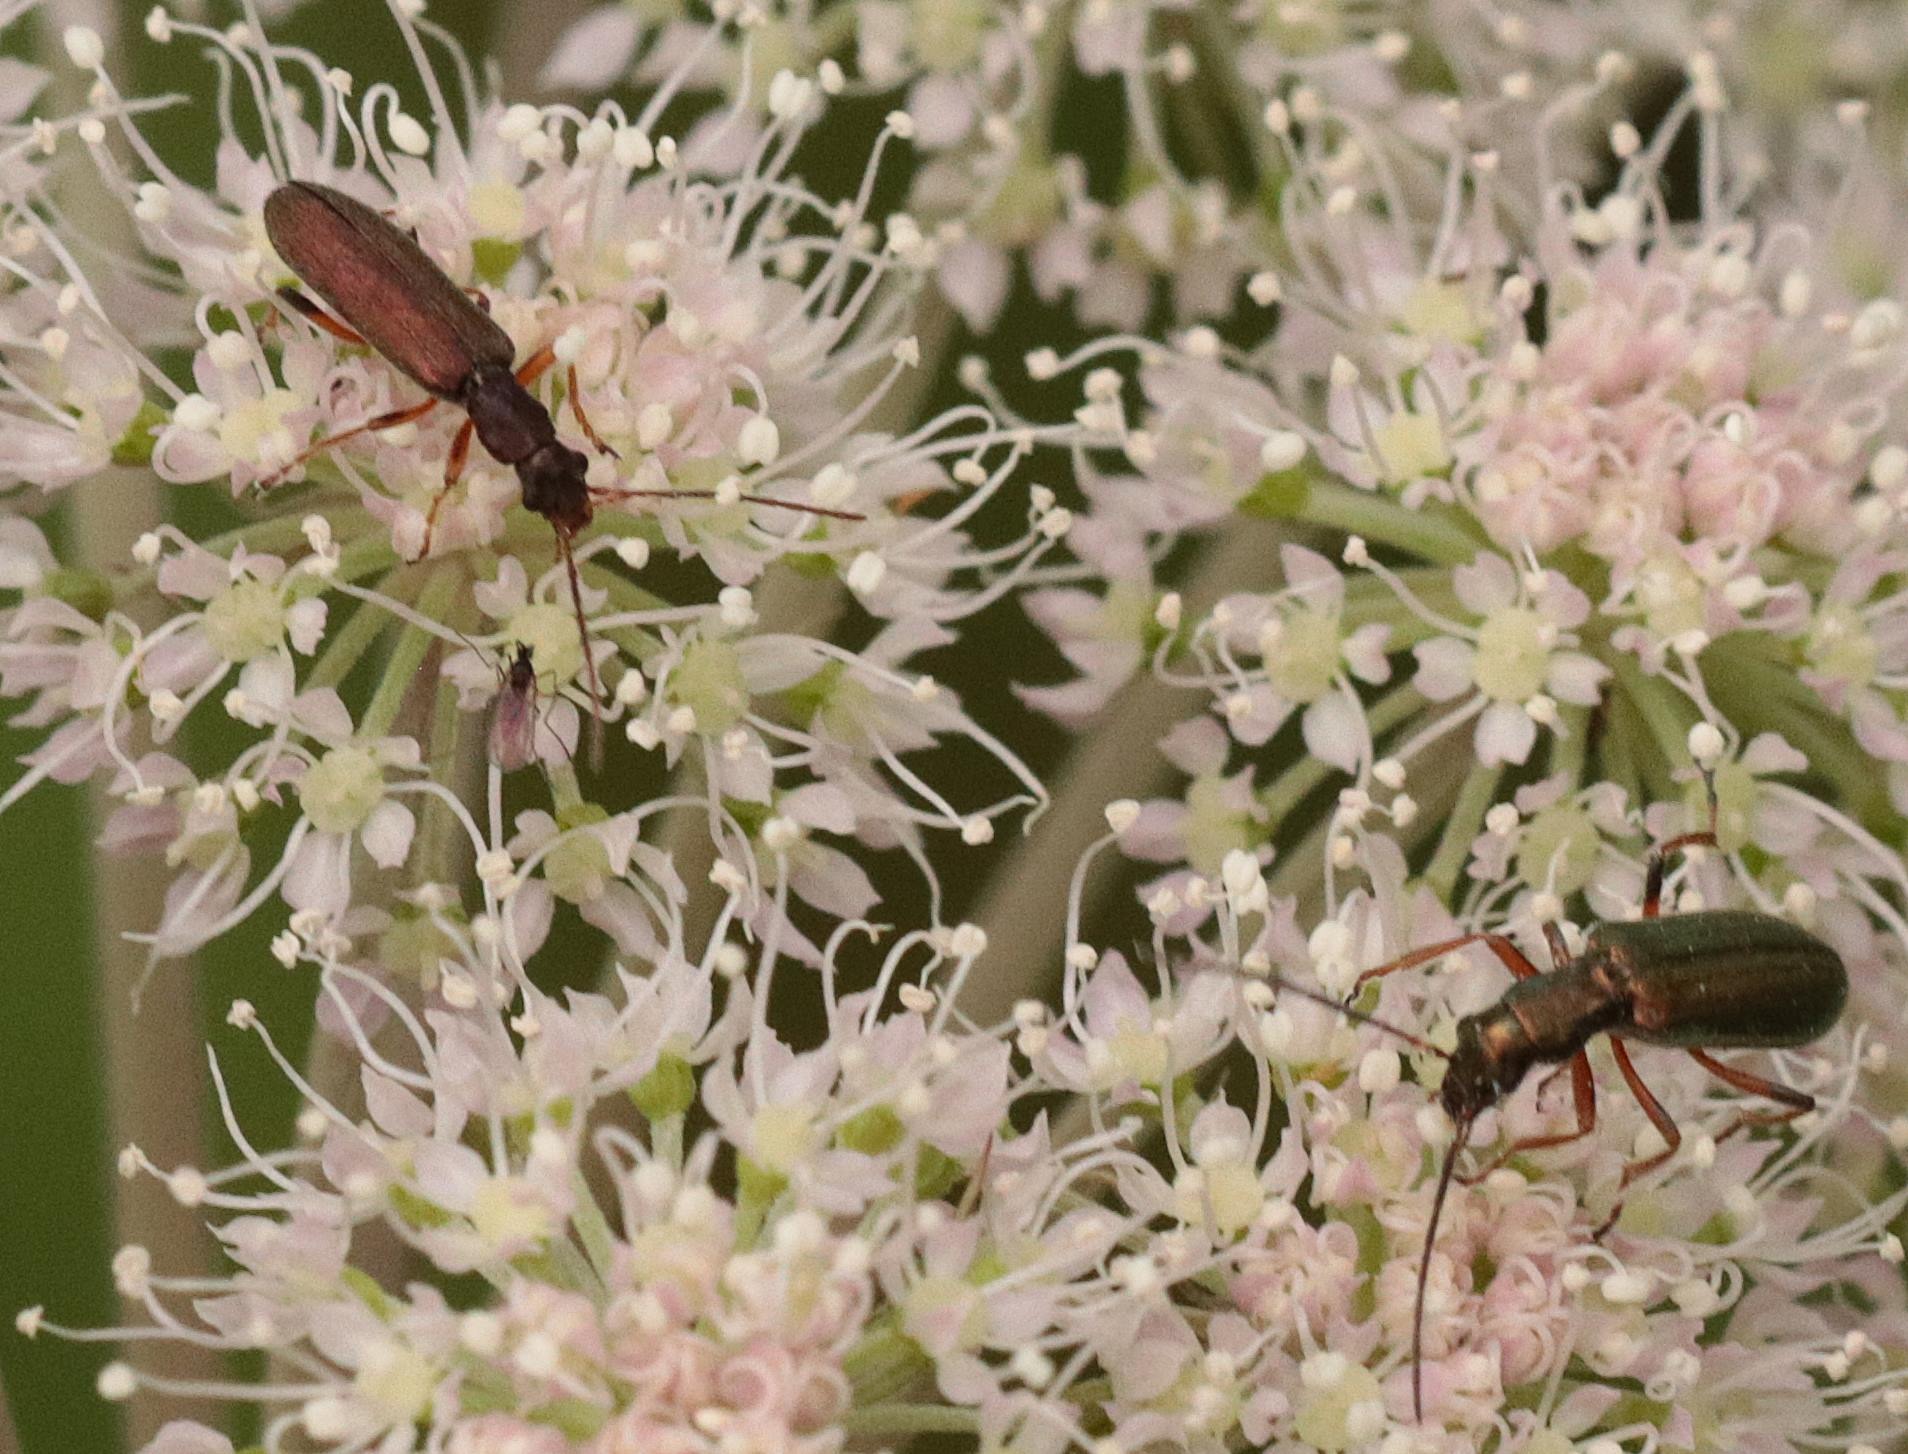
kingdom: Animalia
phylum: Arthropoda
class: Insecta
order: Coleoptera
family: Oedemeridae
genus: Chrysanthia
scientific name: Chrysanthia geniculata
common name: Grøn solbille
